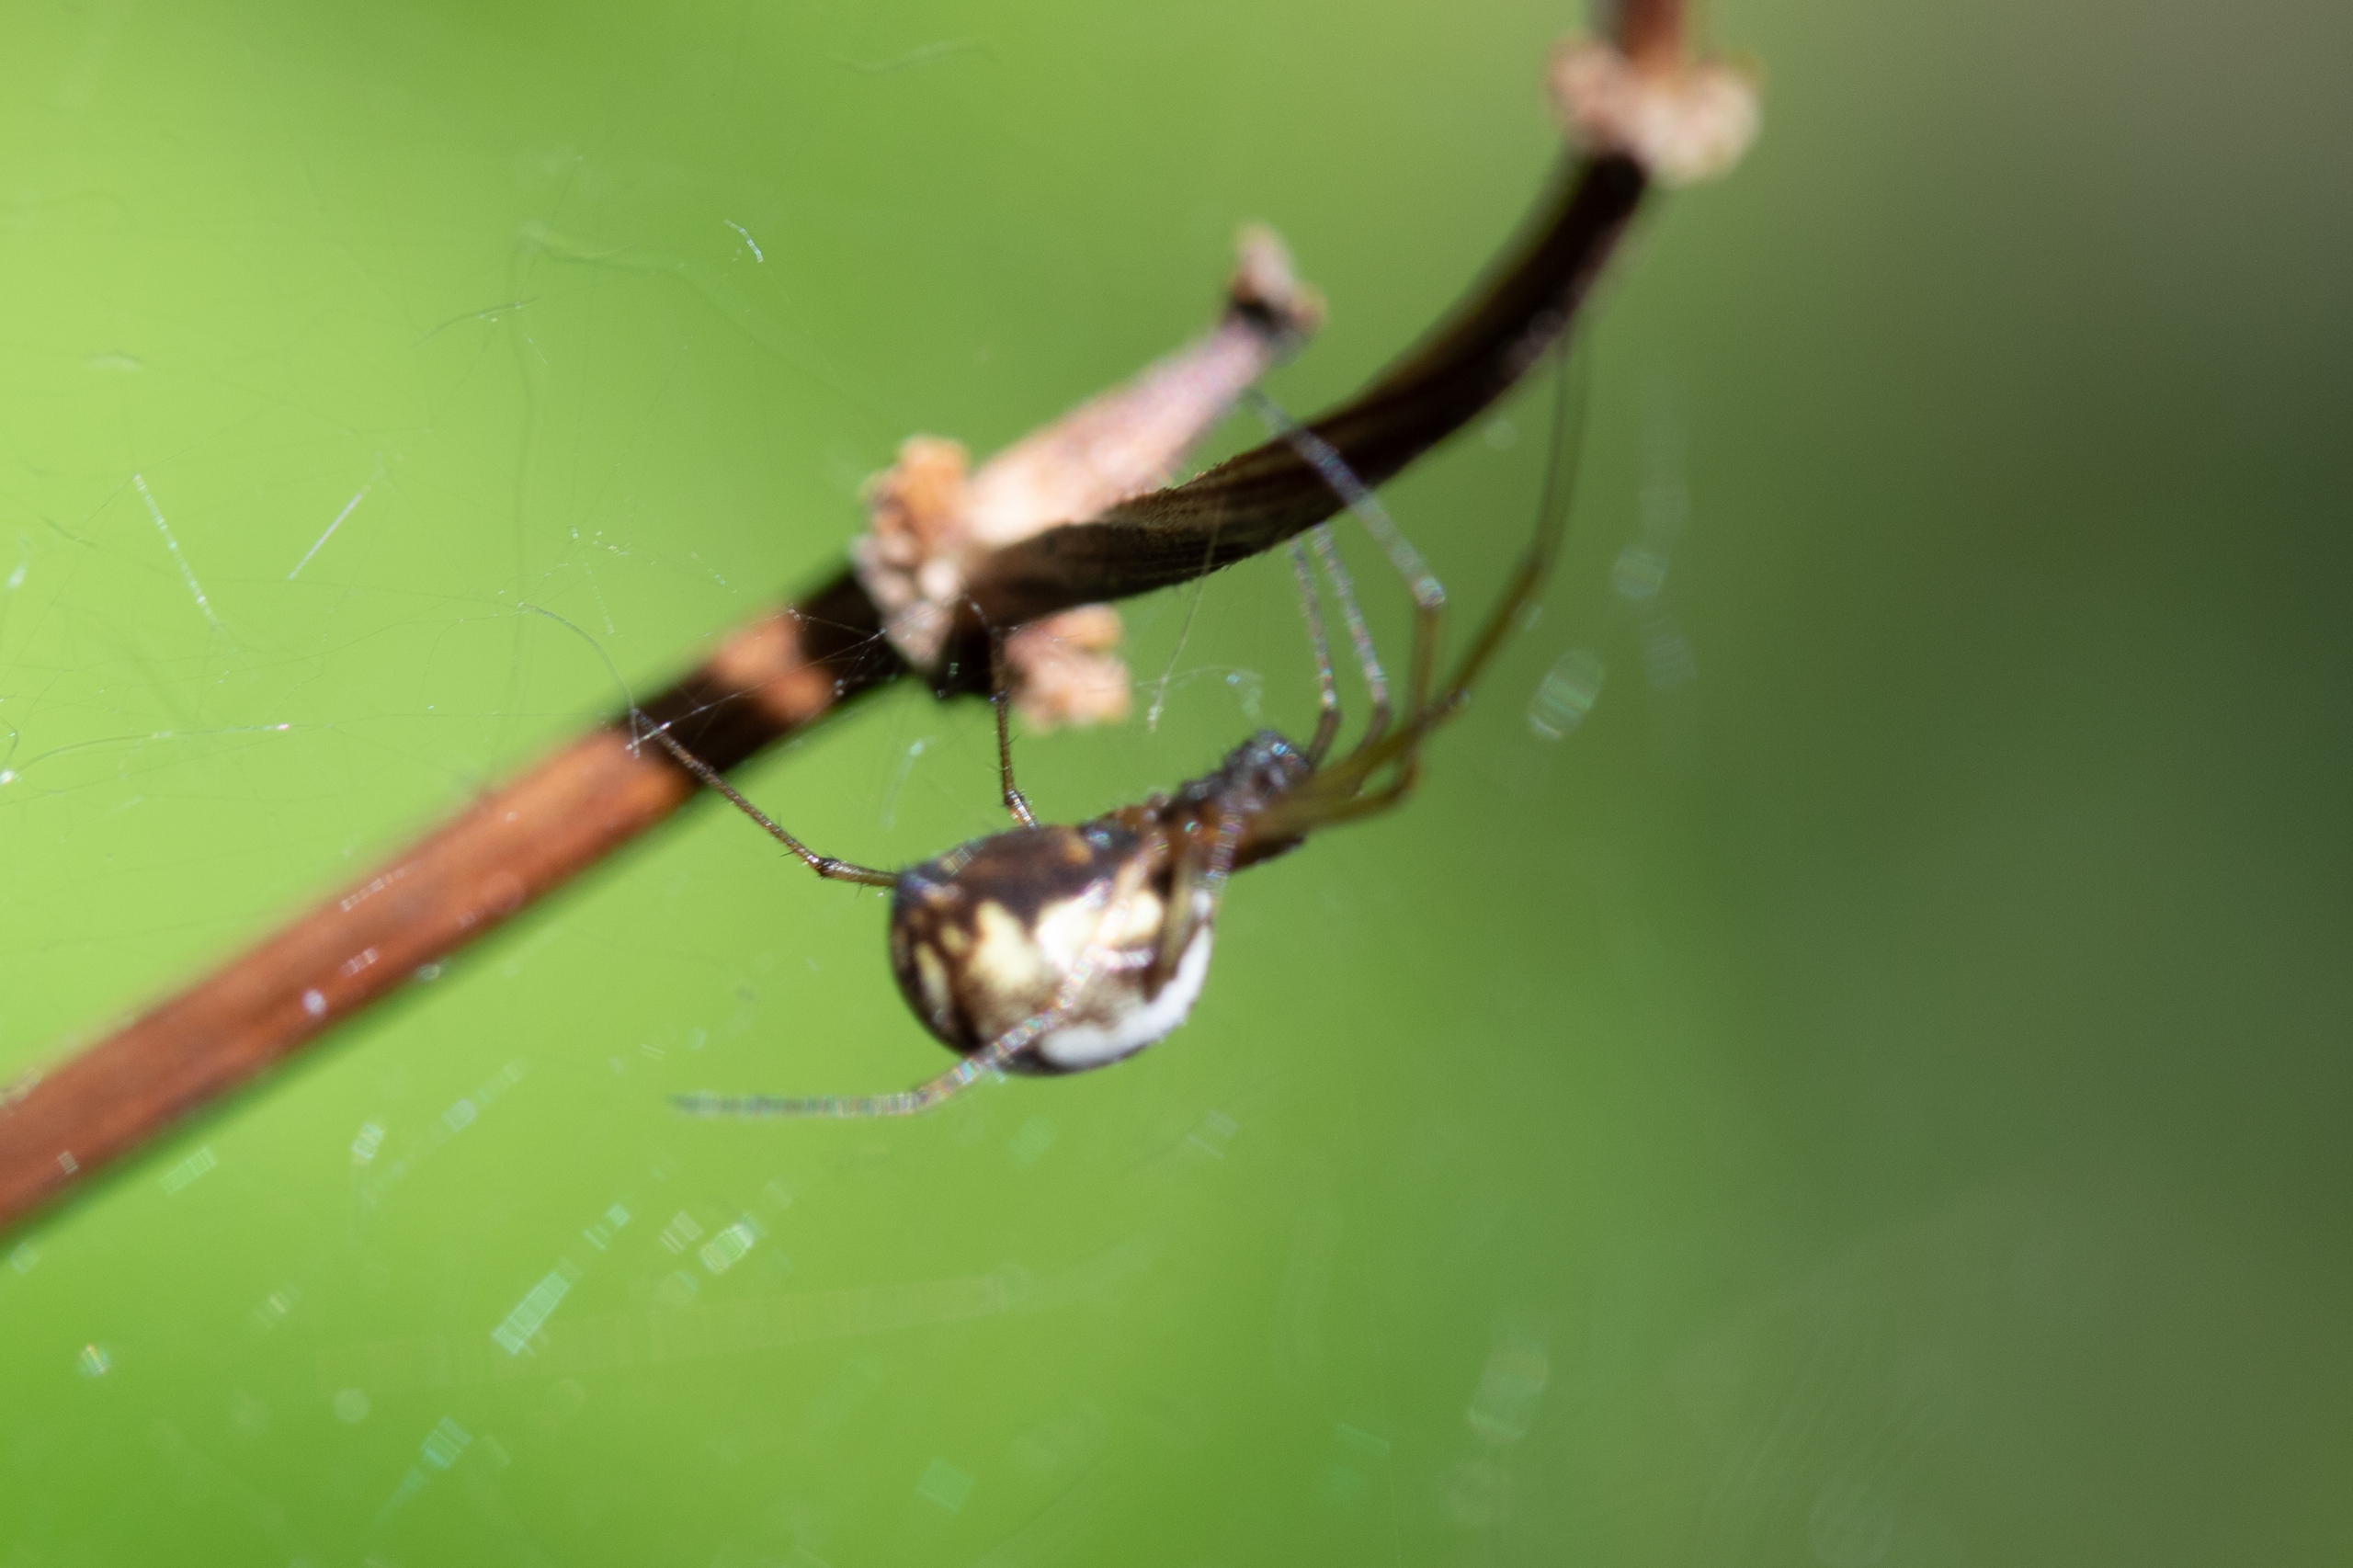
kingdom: Animalia
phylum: Arthropoda
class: Arachnida
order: Araneae
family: Linyphiidae
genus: Linyphia
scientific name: Linyphia triangularis
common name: Almindelig baldakinspinder
